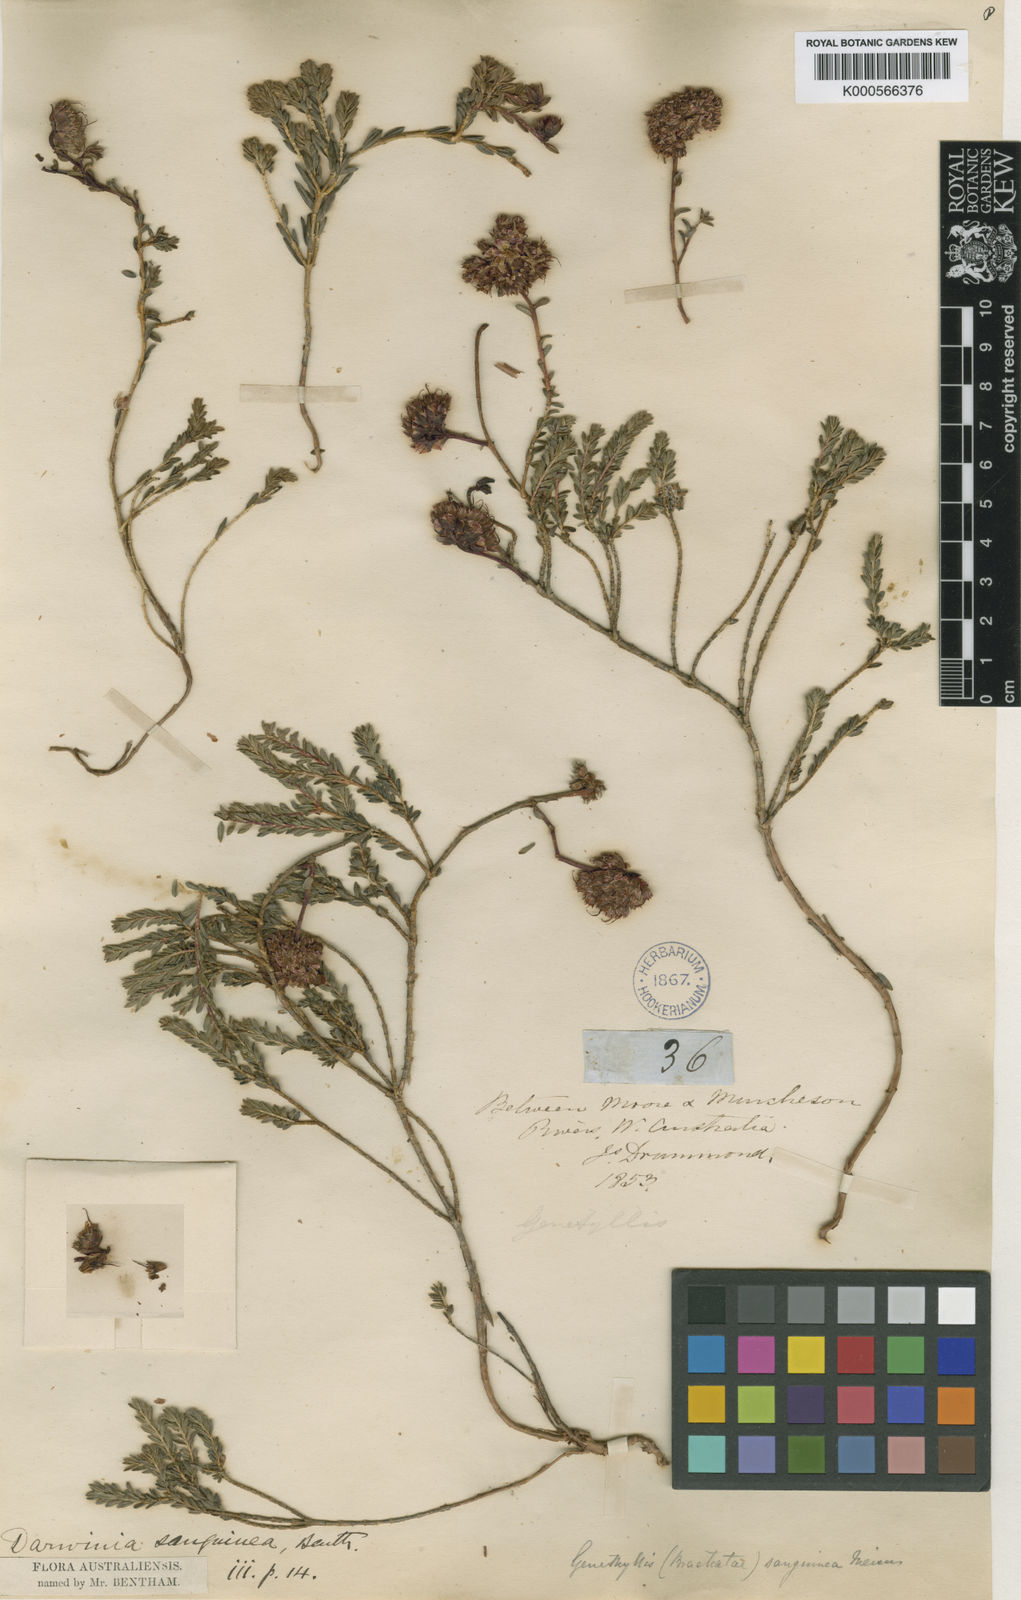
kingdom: Plantae
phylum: Tracheophyta
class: Magnoliopsida
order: Myrtales
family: Myrtaceae
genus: Darwinia
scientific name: Darwinia sanguinea
